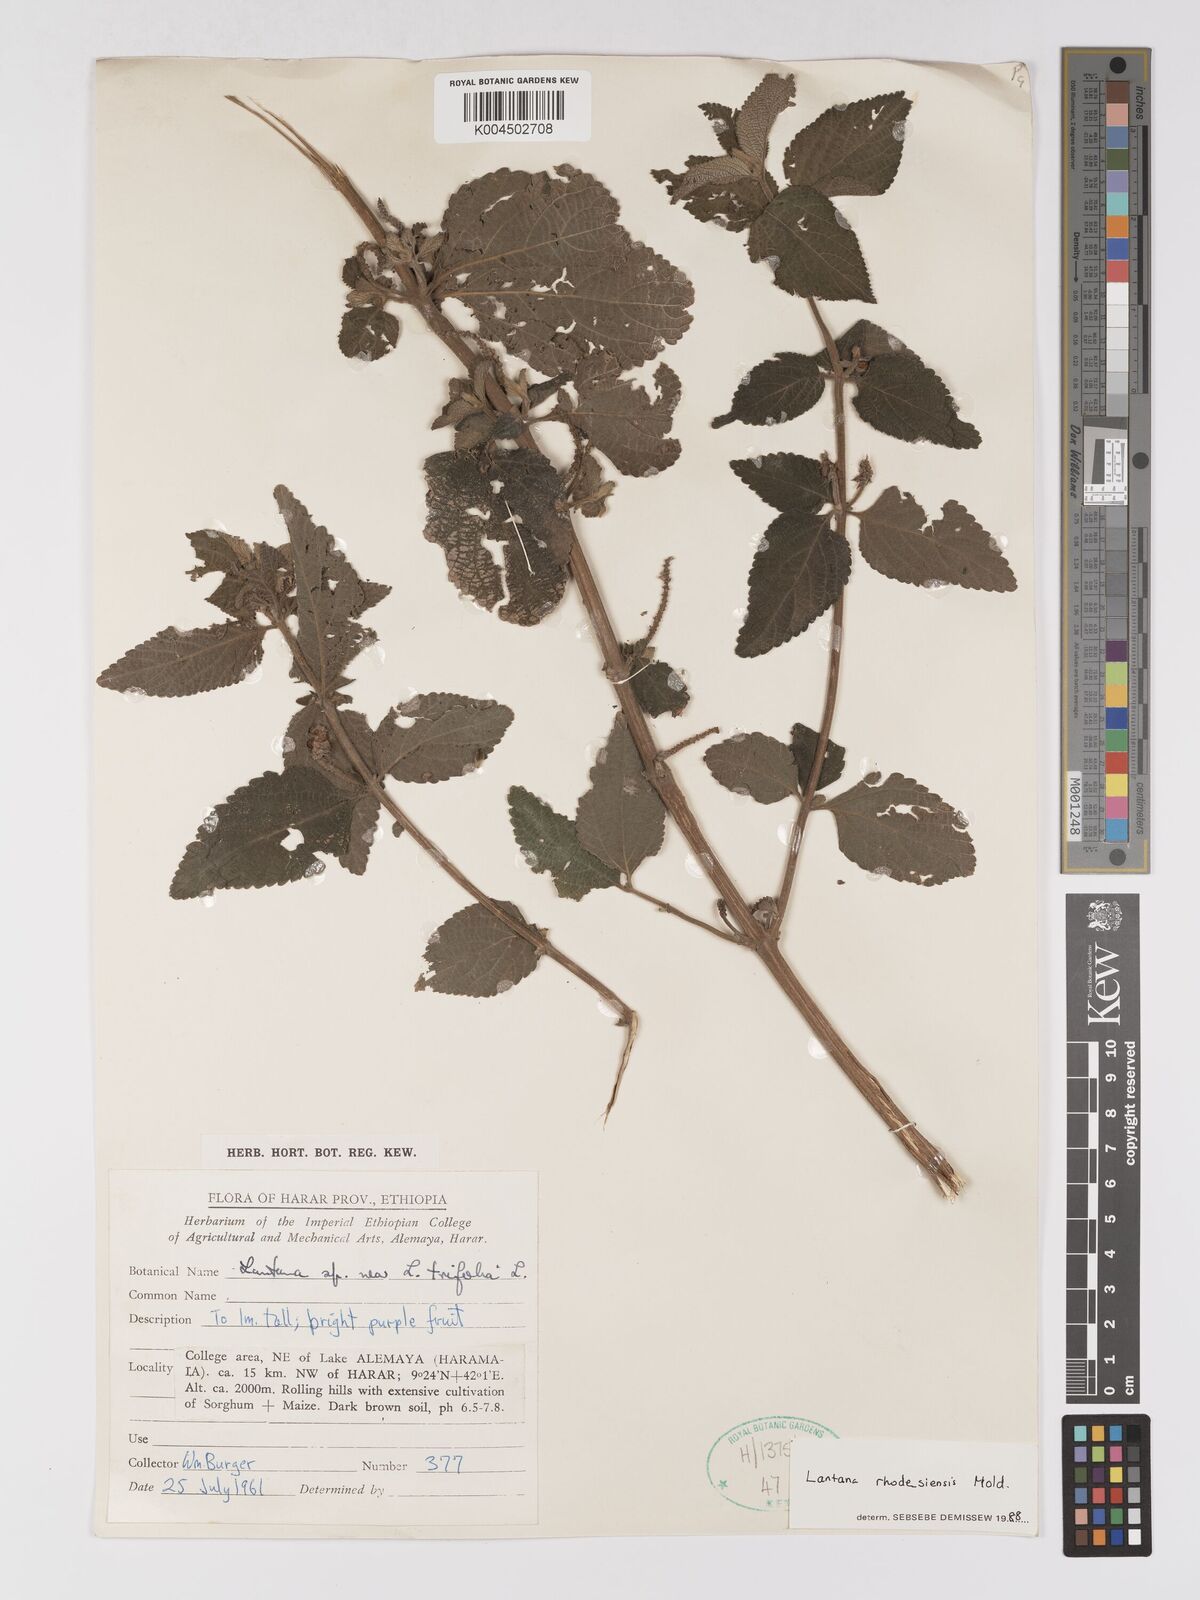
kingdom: Plantae
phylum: Tracheophyta
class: Magnoliopsida
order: Lamiales
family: Verbenaceae
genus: Lantana
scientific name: Lantana ukambensis
